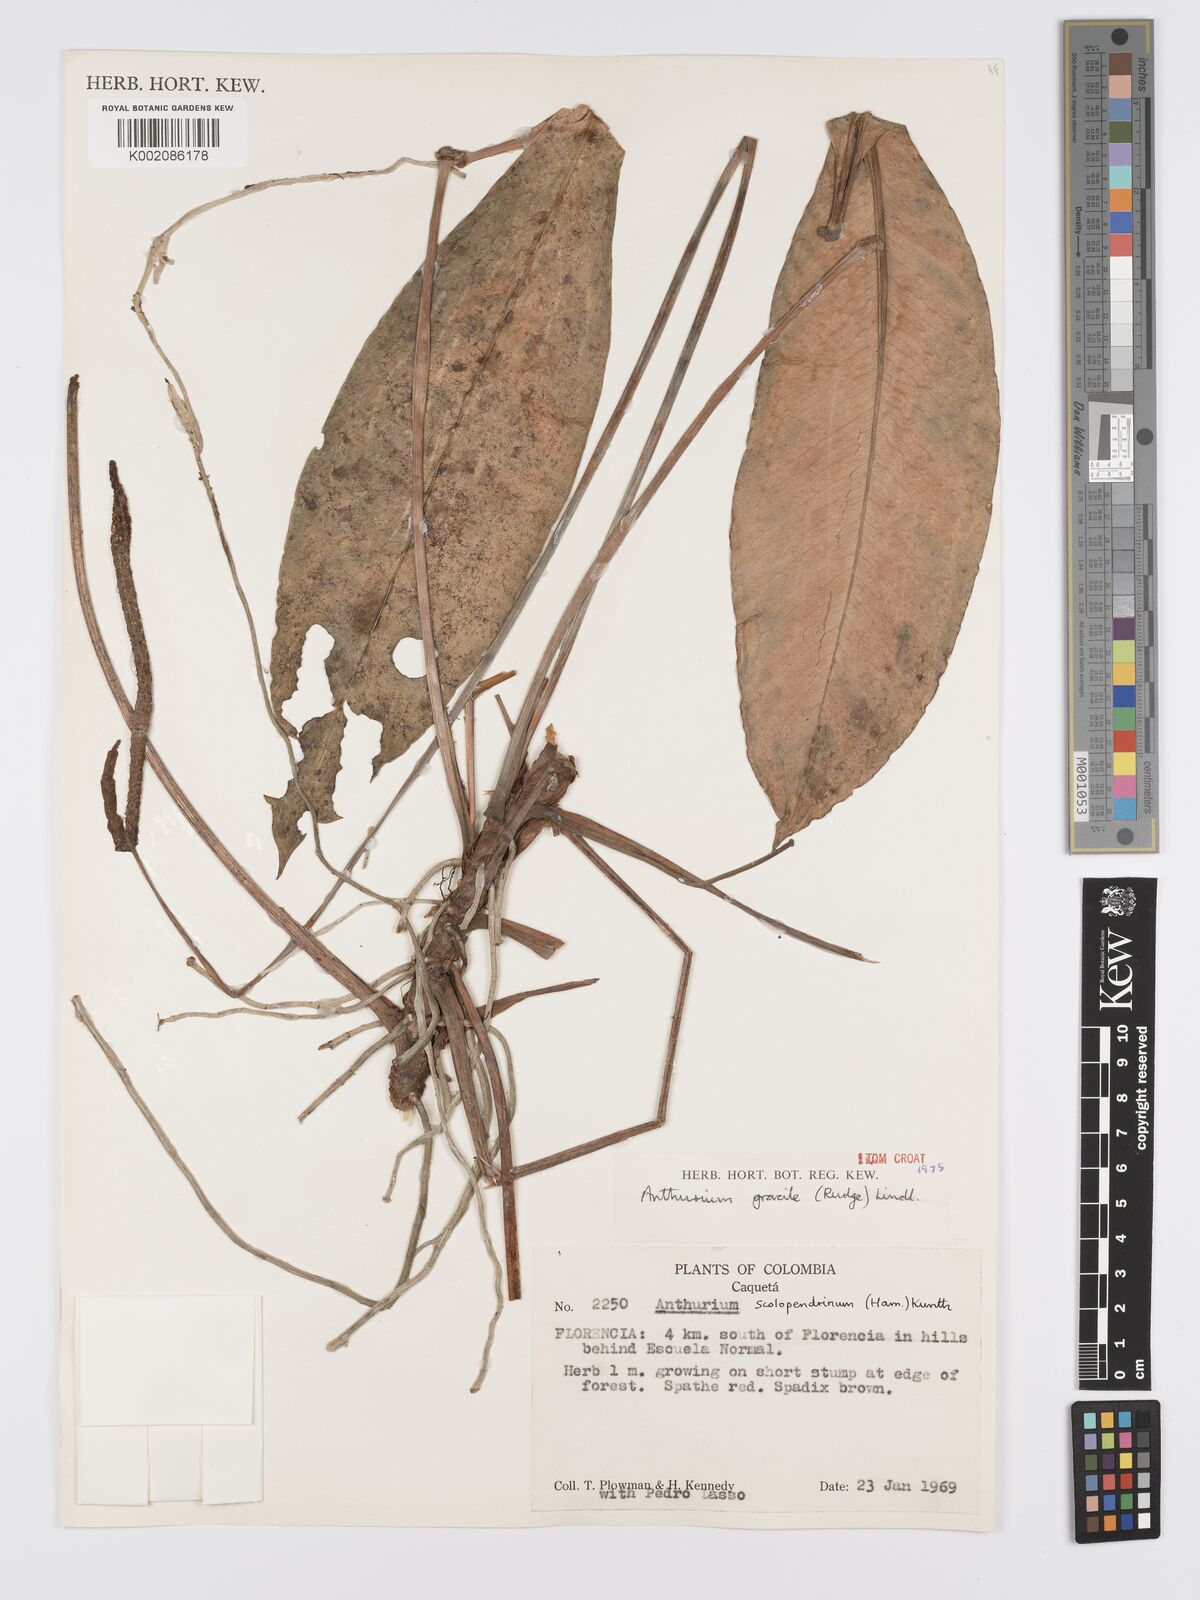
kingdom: Plantae
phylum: Tracheophyta
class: Liliopsida
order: Alismatales
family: Araceae
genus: Anthurium
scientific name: Anthurium gracile
